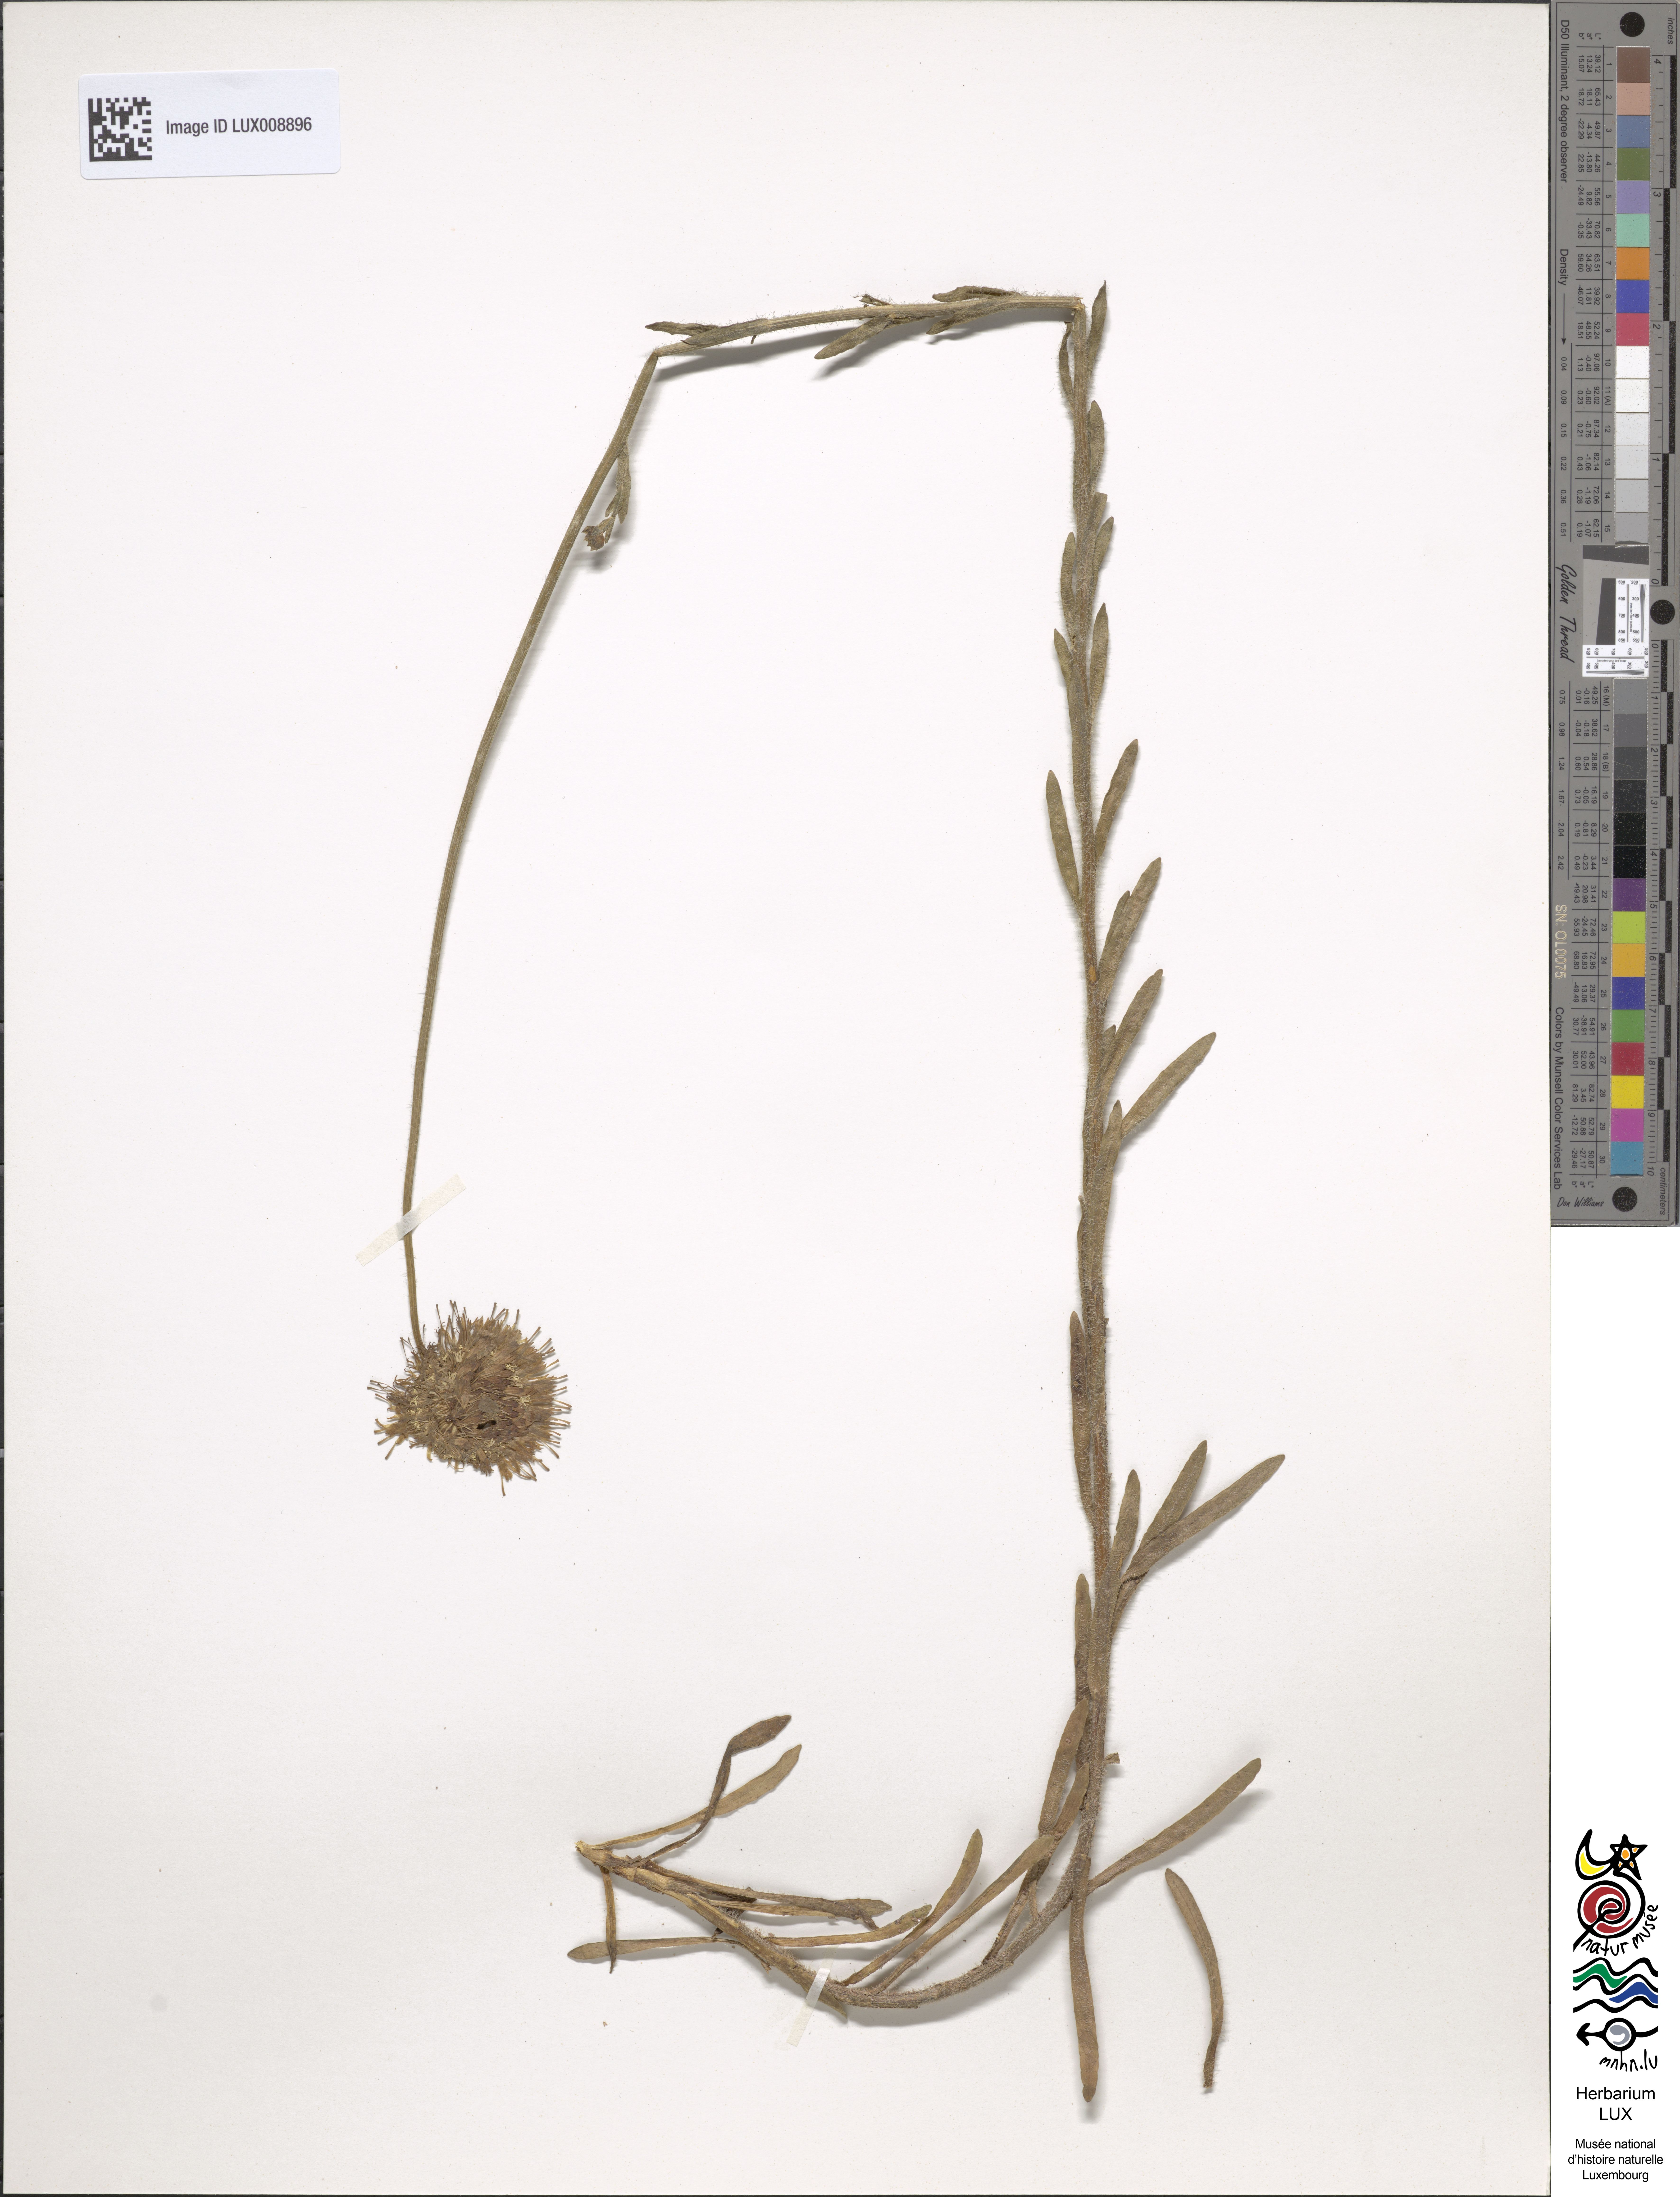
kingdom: Plantae
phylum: Tracheophyta
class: Magnoliopsida
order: Asterales
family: Campanulaceae
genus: Jasione
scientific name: Jasione laevis
